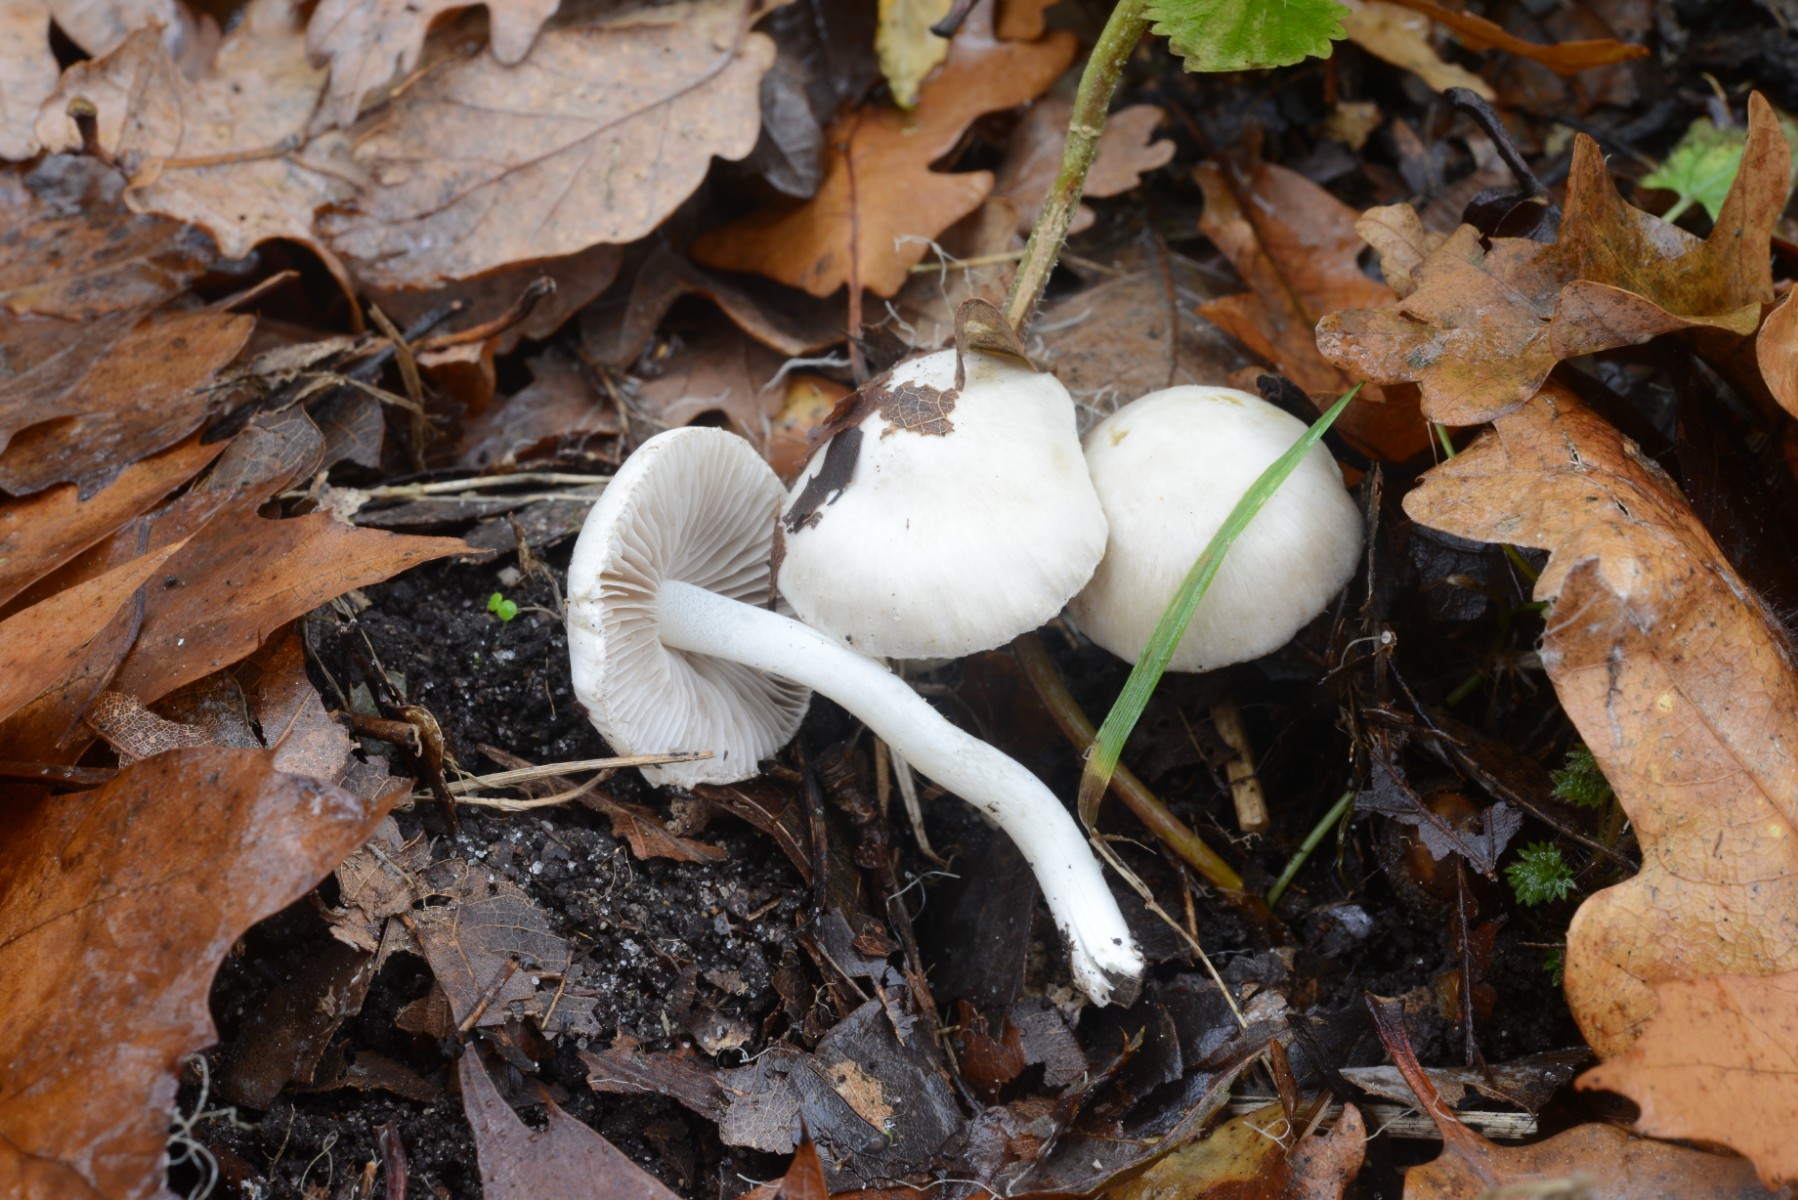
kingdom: Fungi
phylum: Basidiomycota
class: Agaricomycetes
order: Agaricales
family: Inocybaceae
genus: Inocybe
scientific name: Inocybe
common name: almindelig trævlhat
